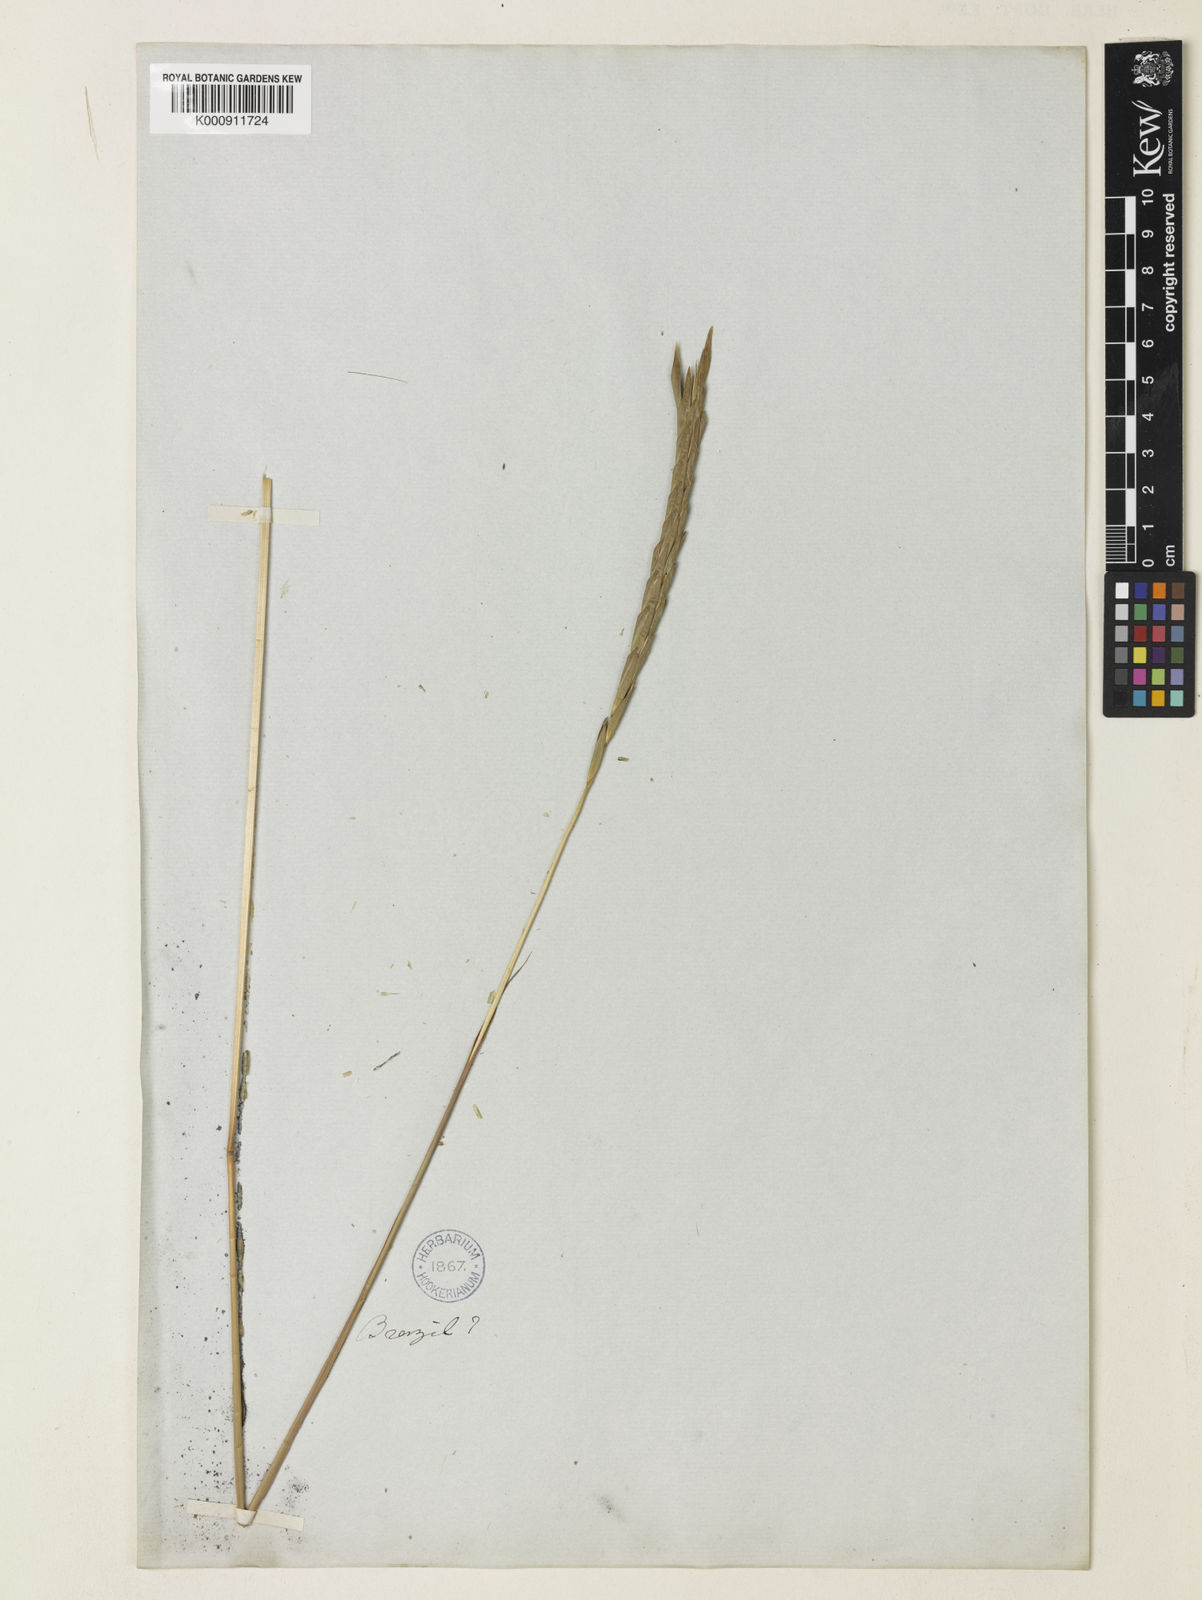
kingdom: Plantae
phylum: Tracheophyta
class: Liliopsida
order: Poales
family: Poaceae
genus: Heteropogon
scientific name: Heteropogon triticeus
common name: Sugar grass
